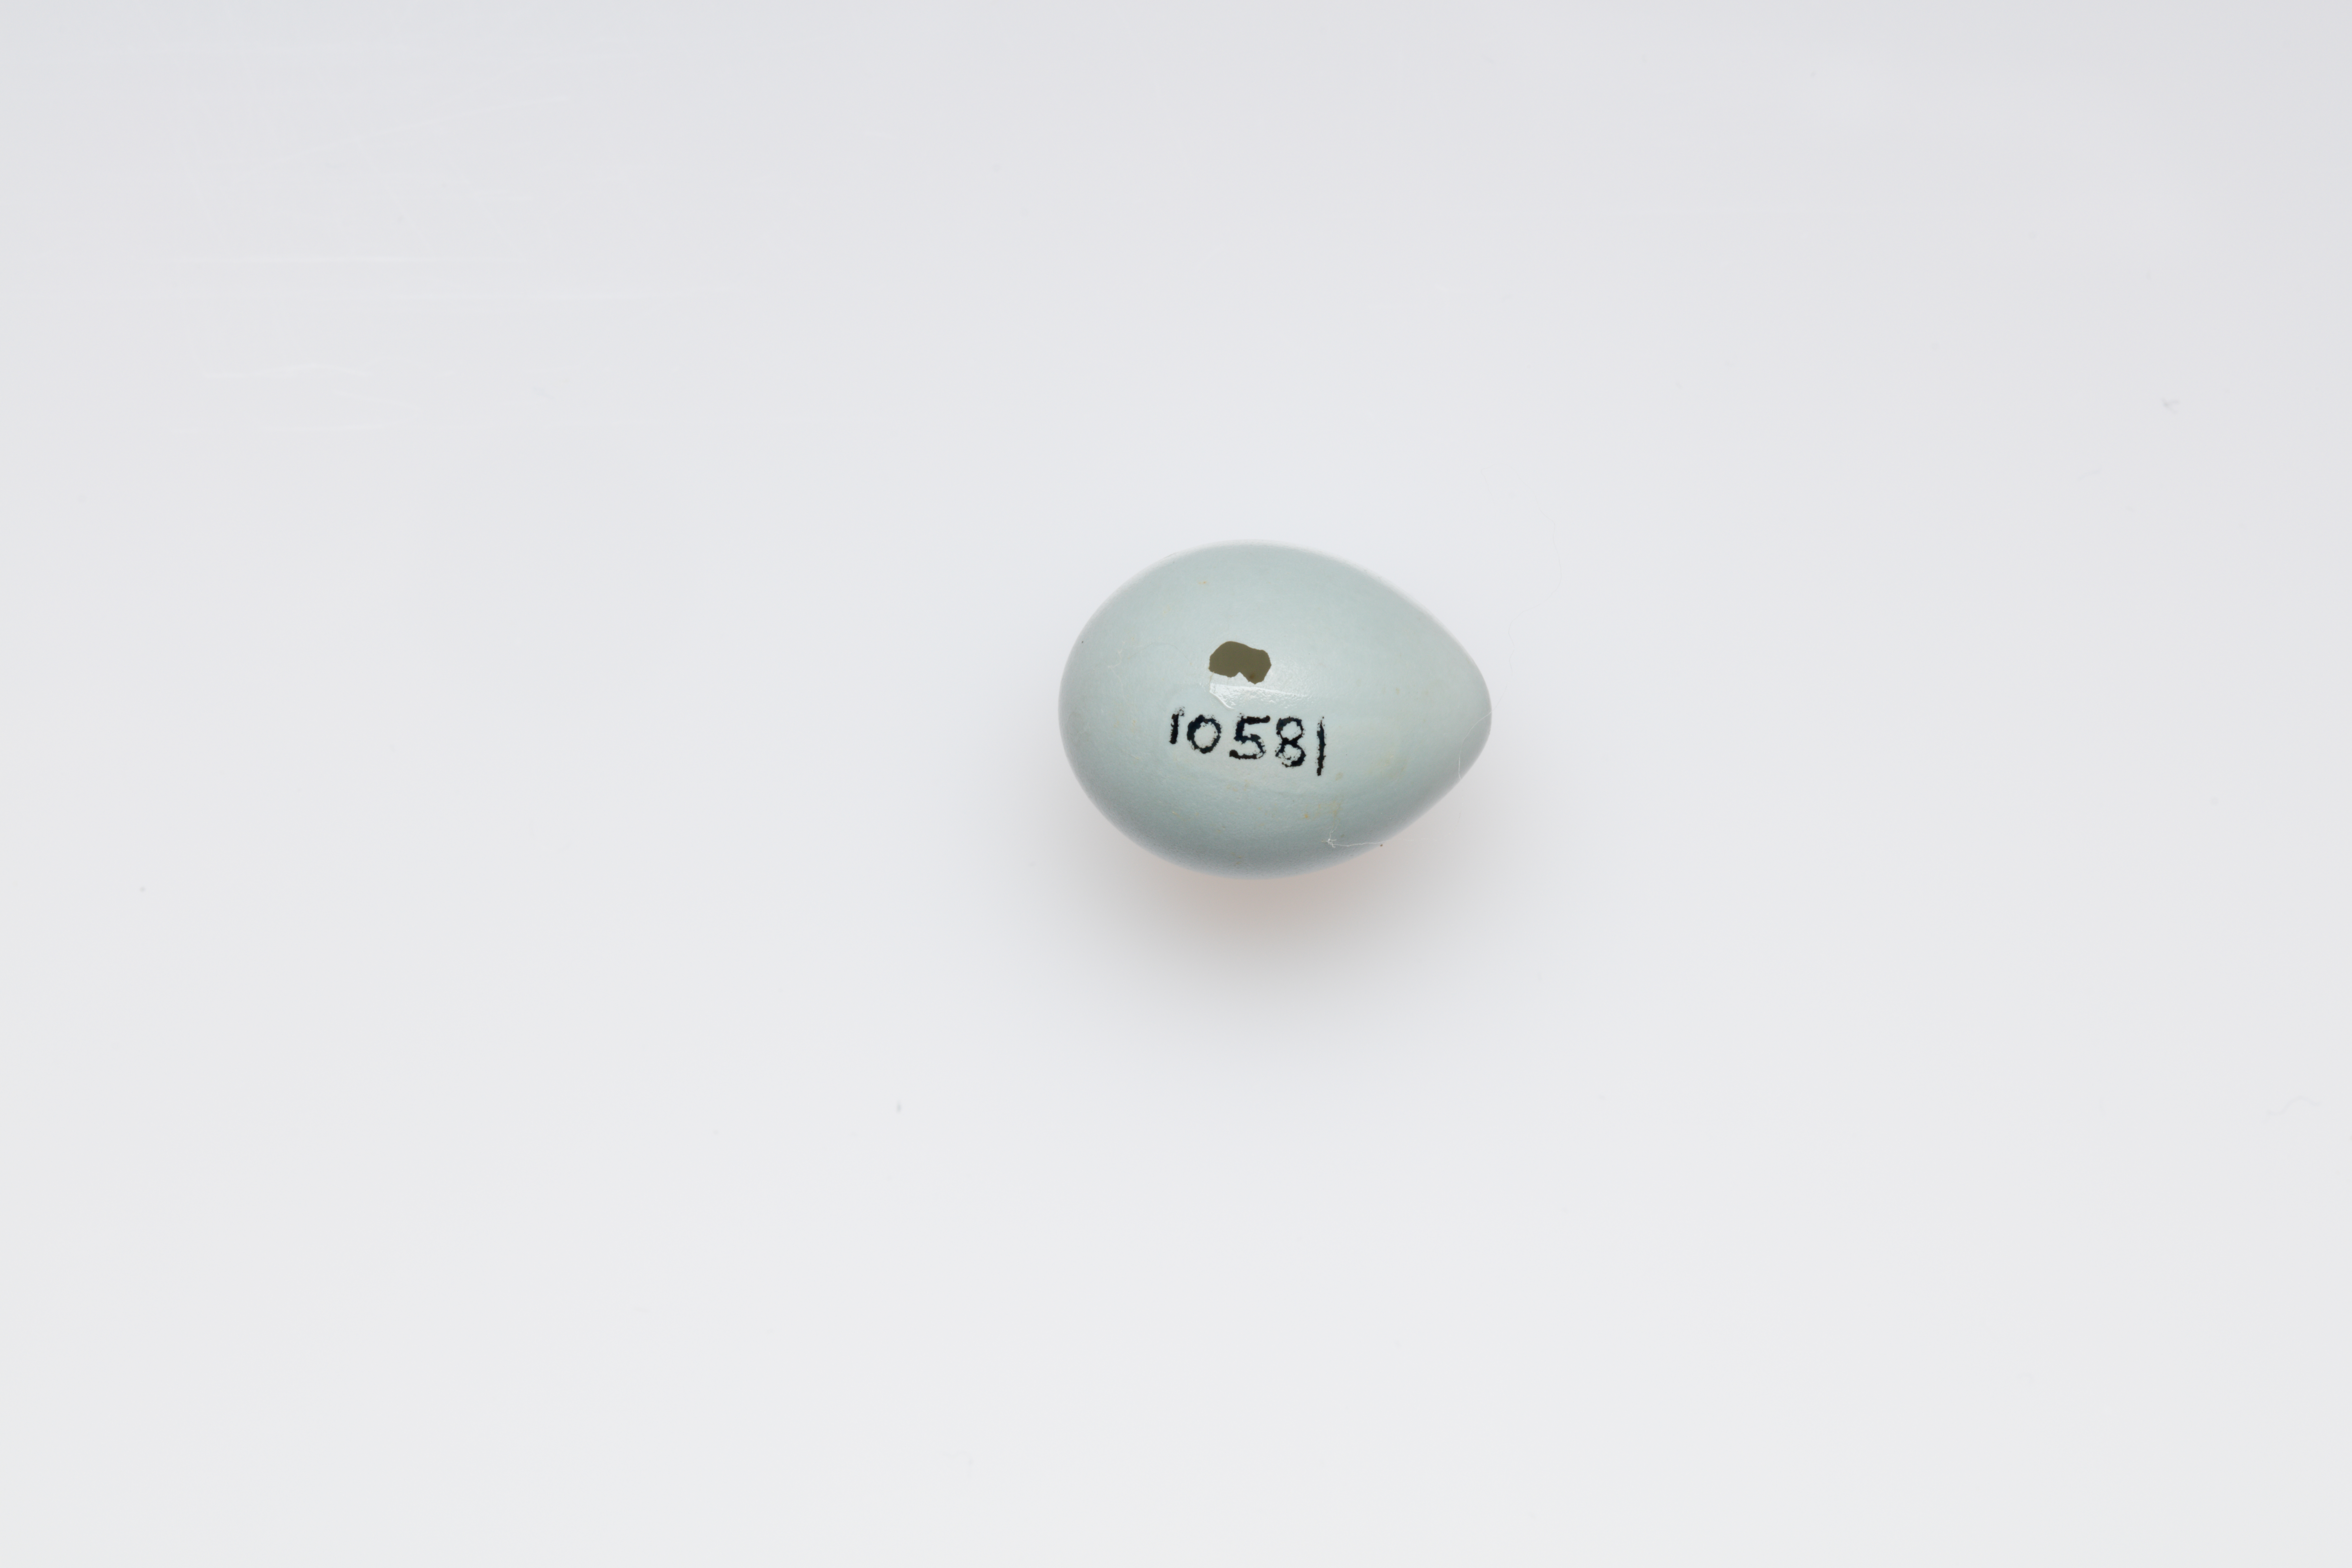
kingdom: Animalia
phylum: Chordata
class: Aves
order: Passeriformes
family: Muscicapidae
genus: Phoenicurus
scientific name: Phoenicurus phoenicurus
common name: Common redstart
